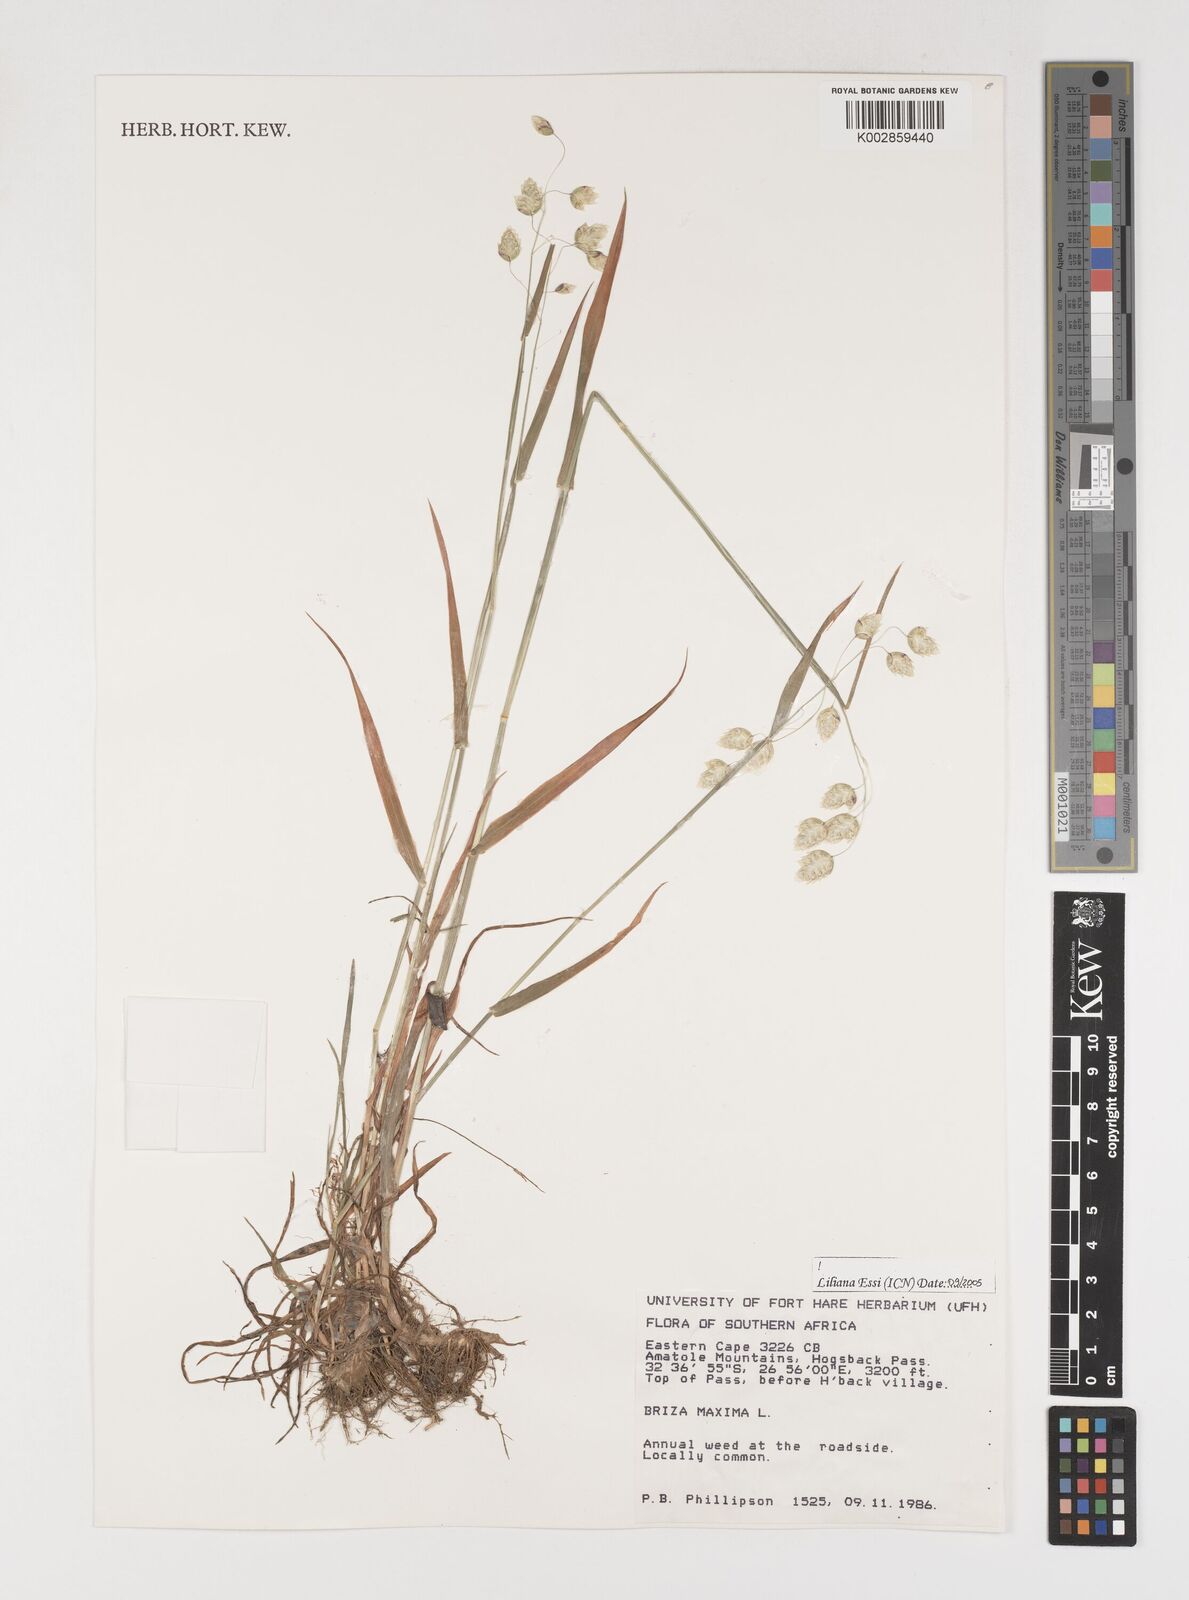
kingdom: Plantae
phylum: Tracheophyta
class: Liliopsida
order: Poales
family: Poaceae
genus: Briza
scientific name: Briza maxima
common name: Big quakinggrass
